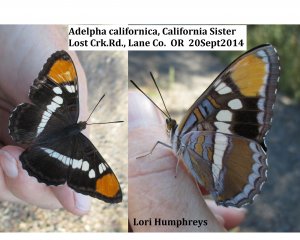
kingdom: Animalia
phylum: Arthropoda
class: Insecta
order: Lepidoptera
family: Nymphalidae
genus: Limenitis
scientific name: Limenitis bredowii
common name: California Sister
